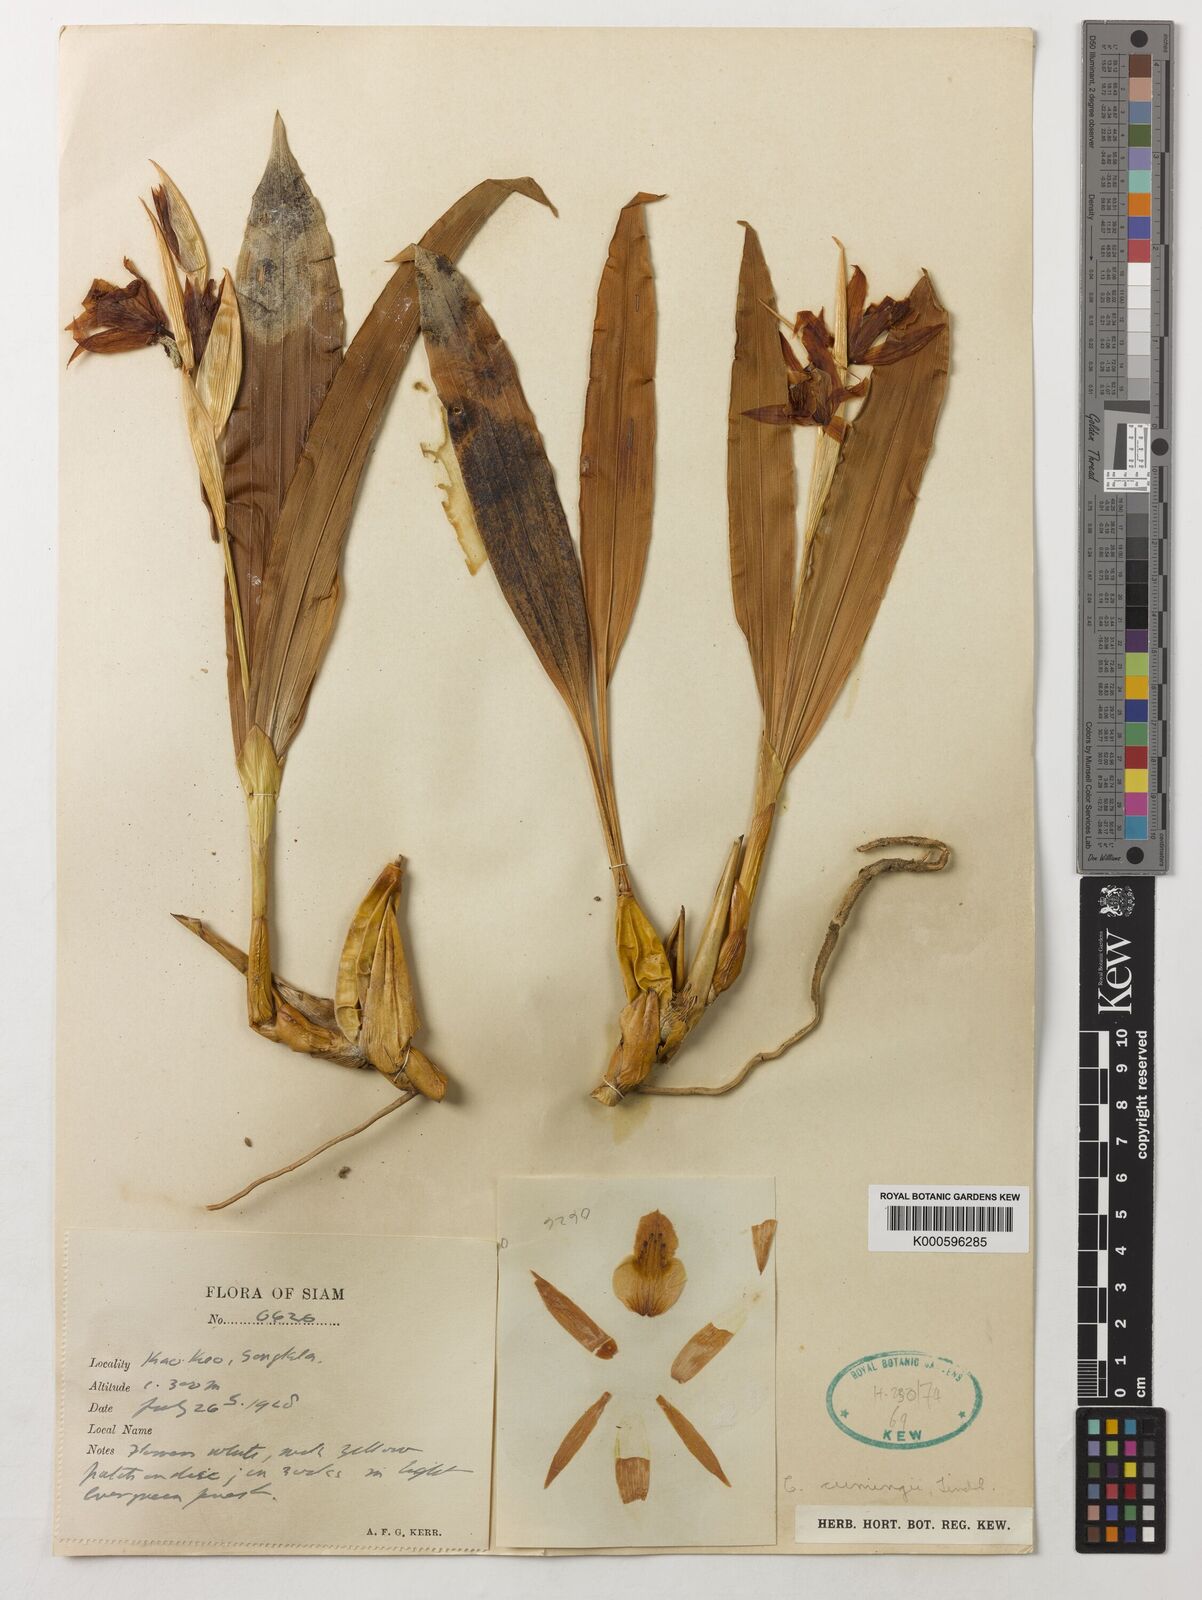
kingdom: Plantae
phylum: Tracheophyta
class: Liliopsida
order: Asparagales
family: Orchidaceae
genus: Coelogyne
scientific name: Coelogyne cumingii
